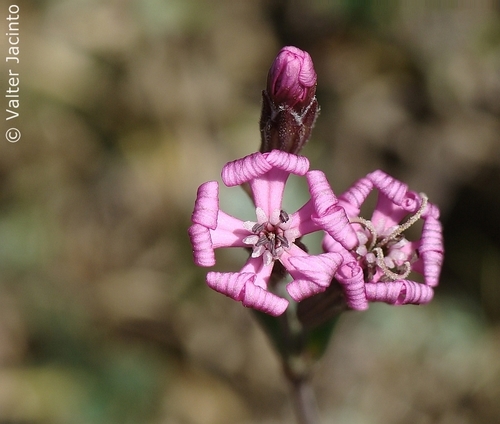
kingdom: Plantae
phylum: Tracheophyta
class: Magnoliopsida
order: Caryophyllales
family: Caryophyllaceae
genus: Silene
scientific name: Silene colorata
